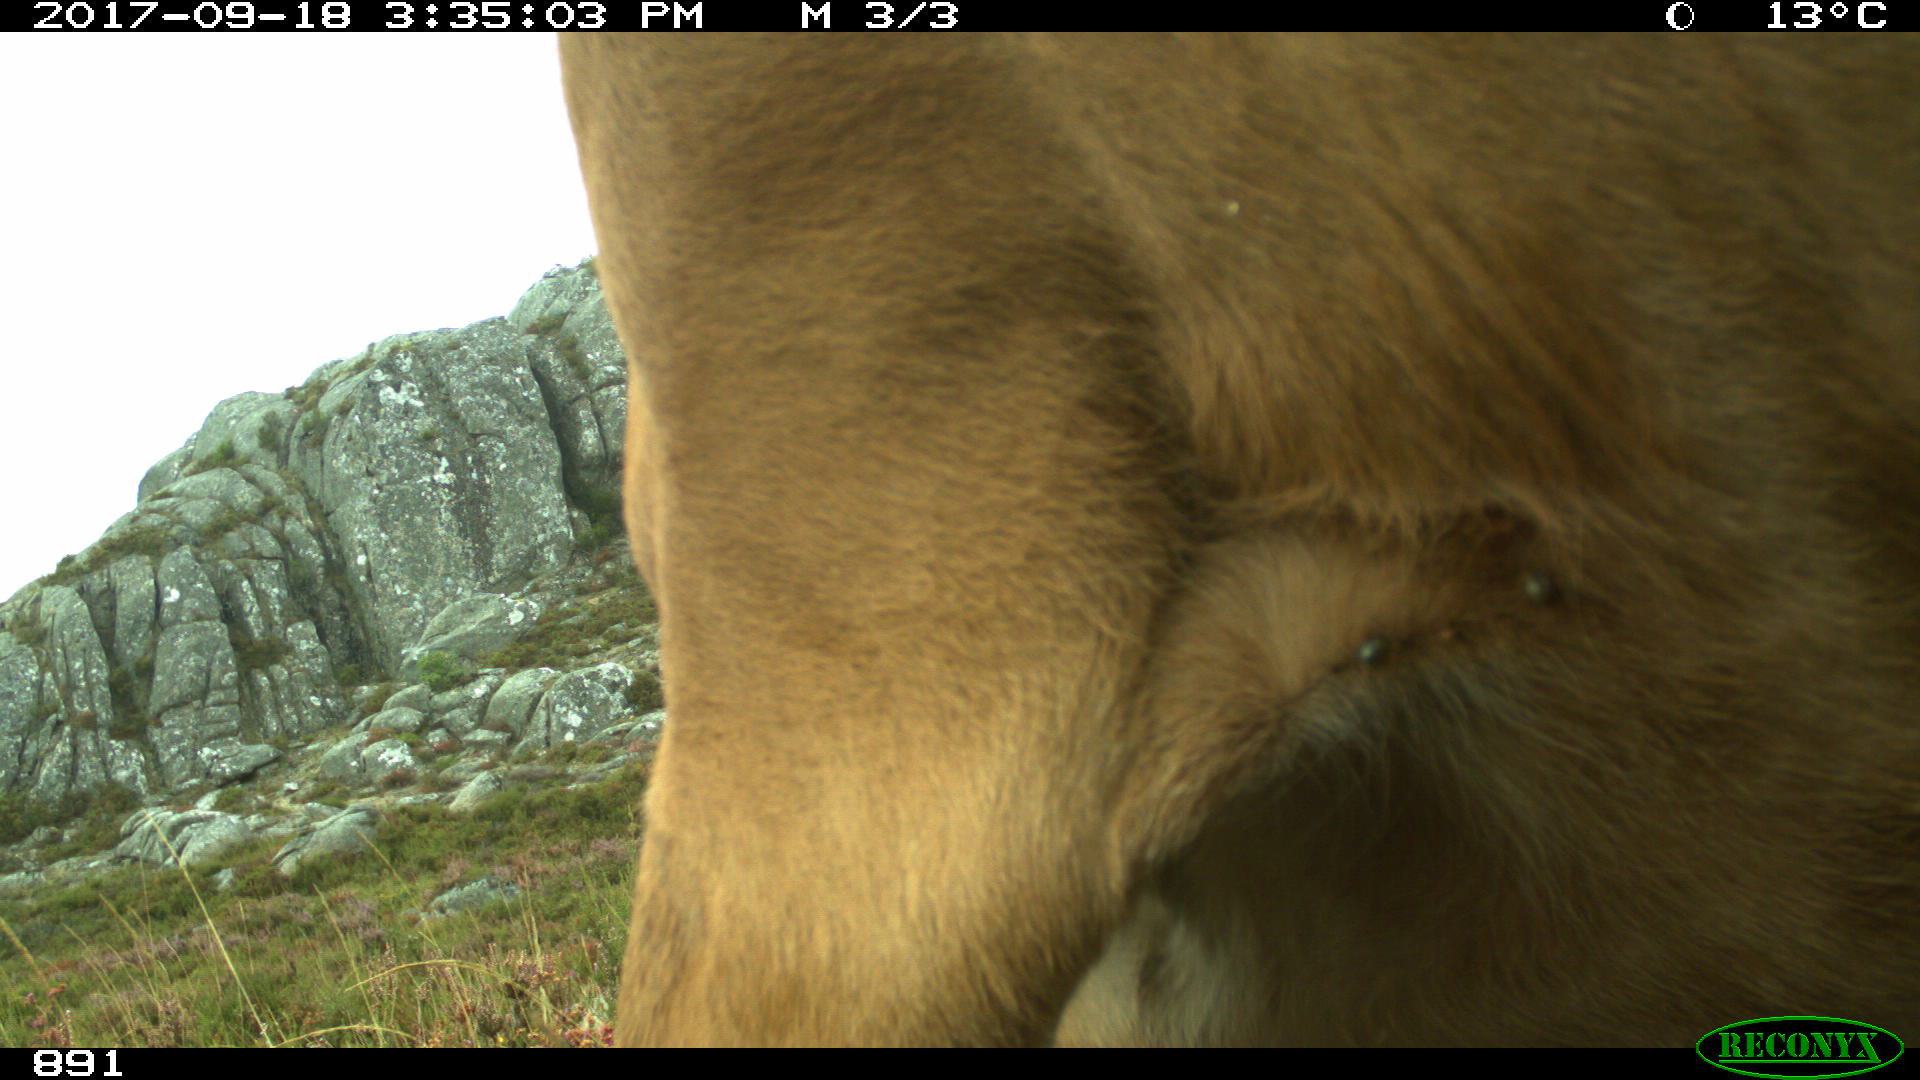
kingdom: Animalia
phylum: Chordata
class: Mammalia
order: Artiodactyla
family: Bovidae
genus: Bos
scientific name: Bos taurus
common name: Domesticated cattle
